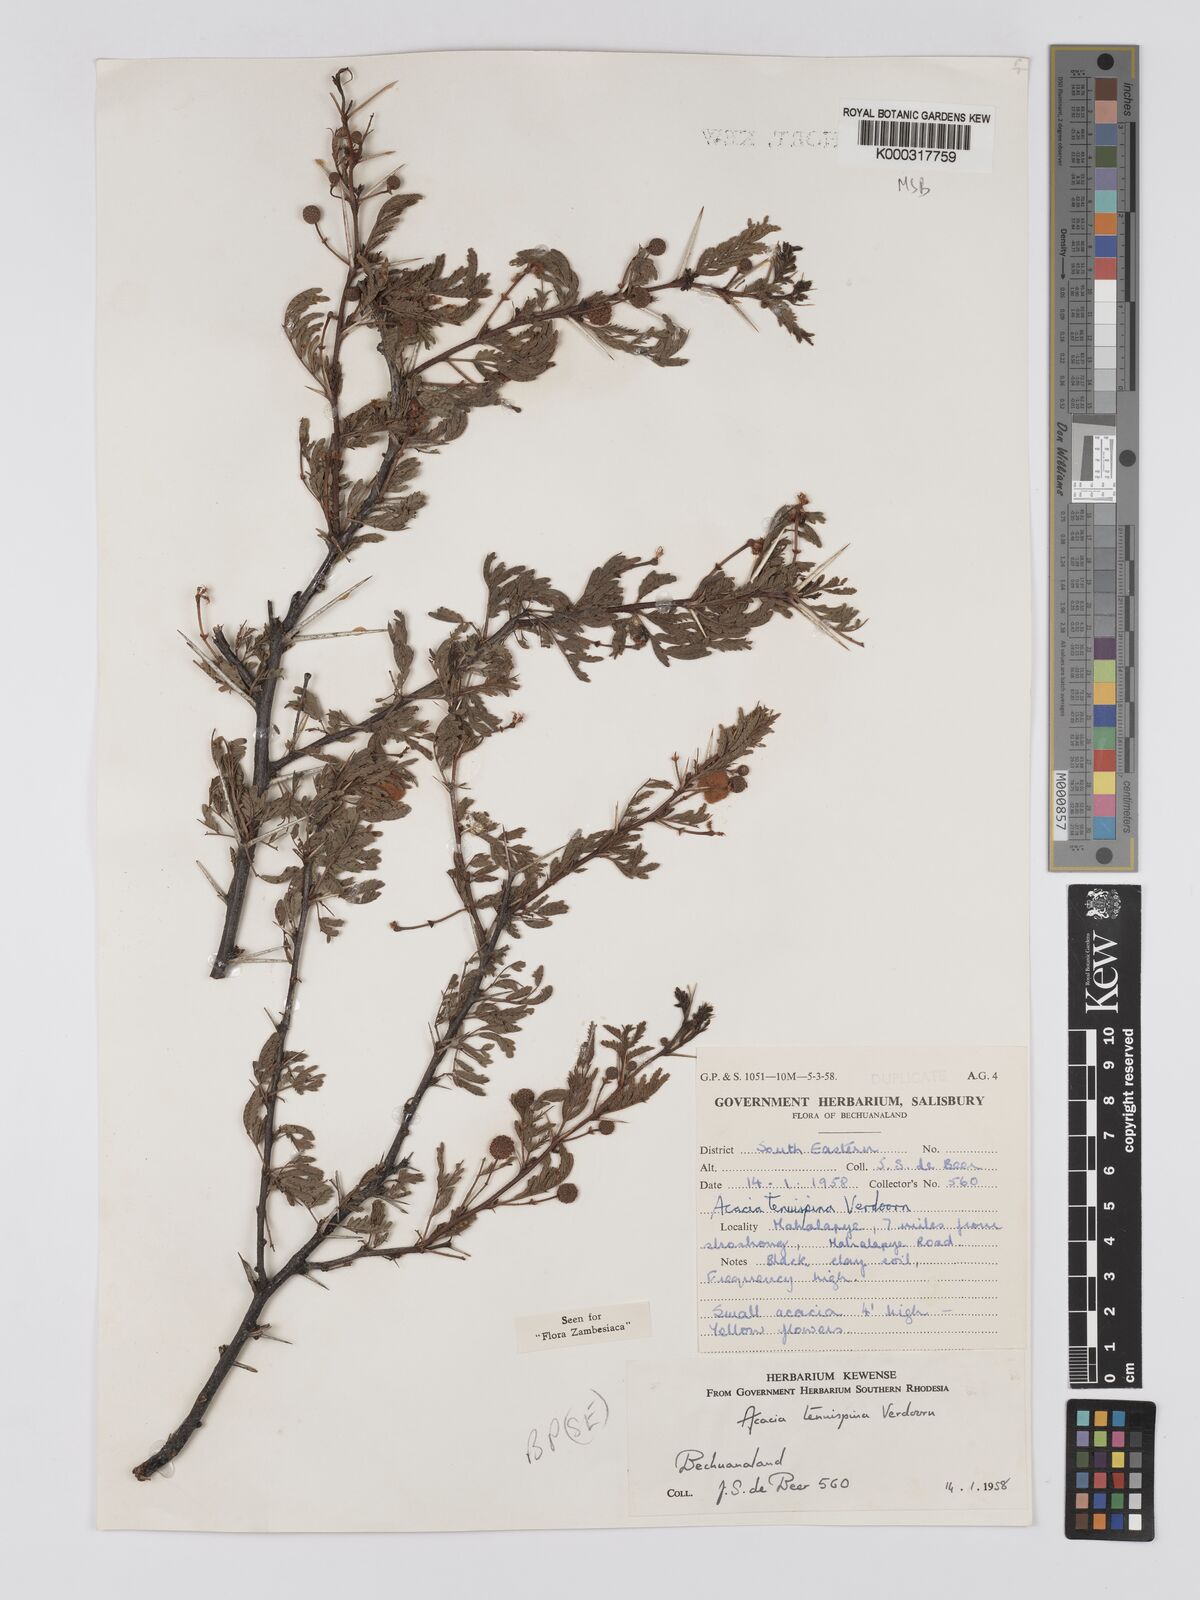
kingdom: Plantae
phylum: Tracheophyta
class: Magnoliopsida
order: Fabales
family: Fabaceae
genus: Vachellia
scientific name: Vachellia tenuispina
